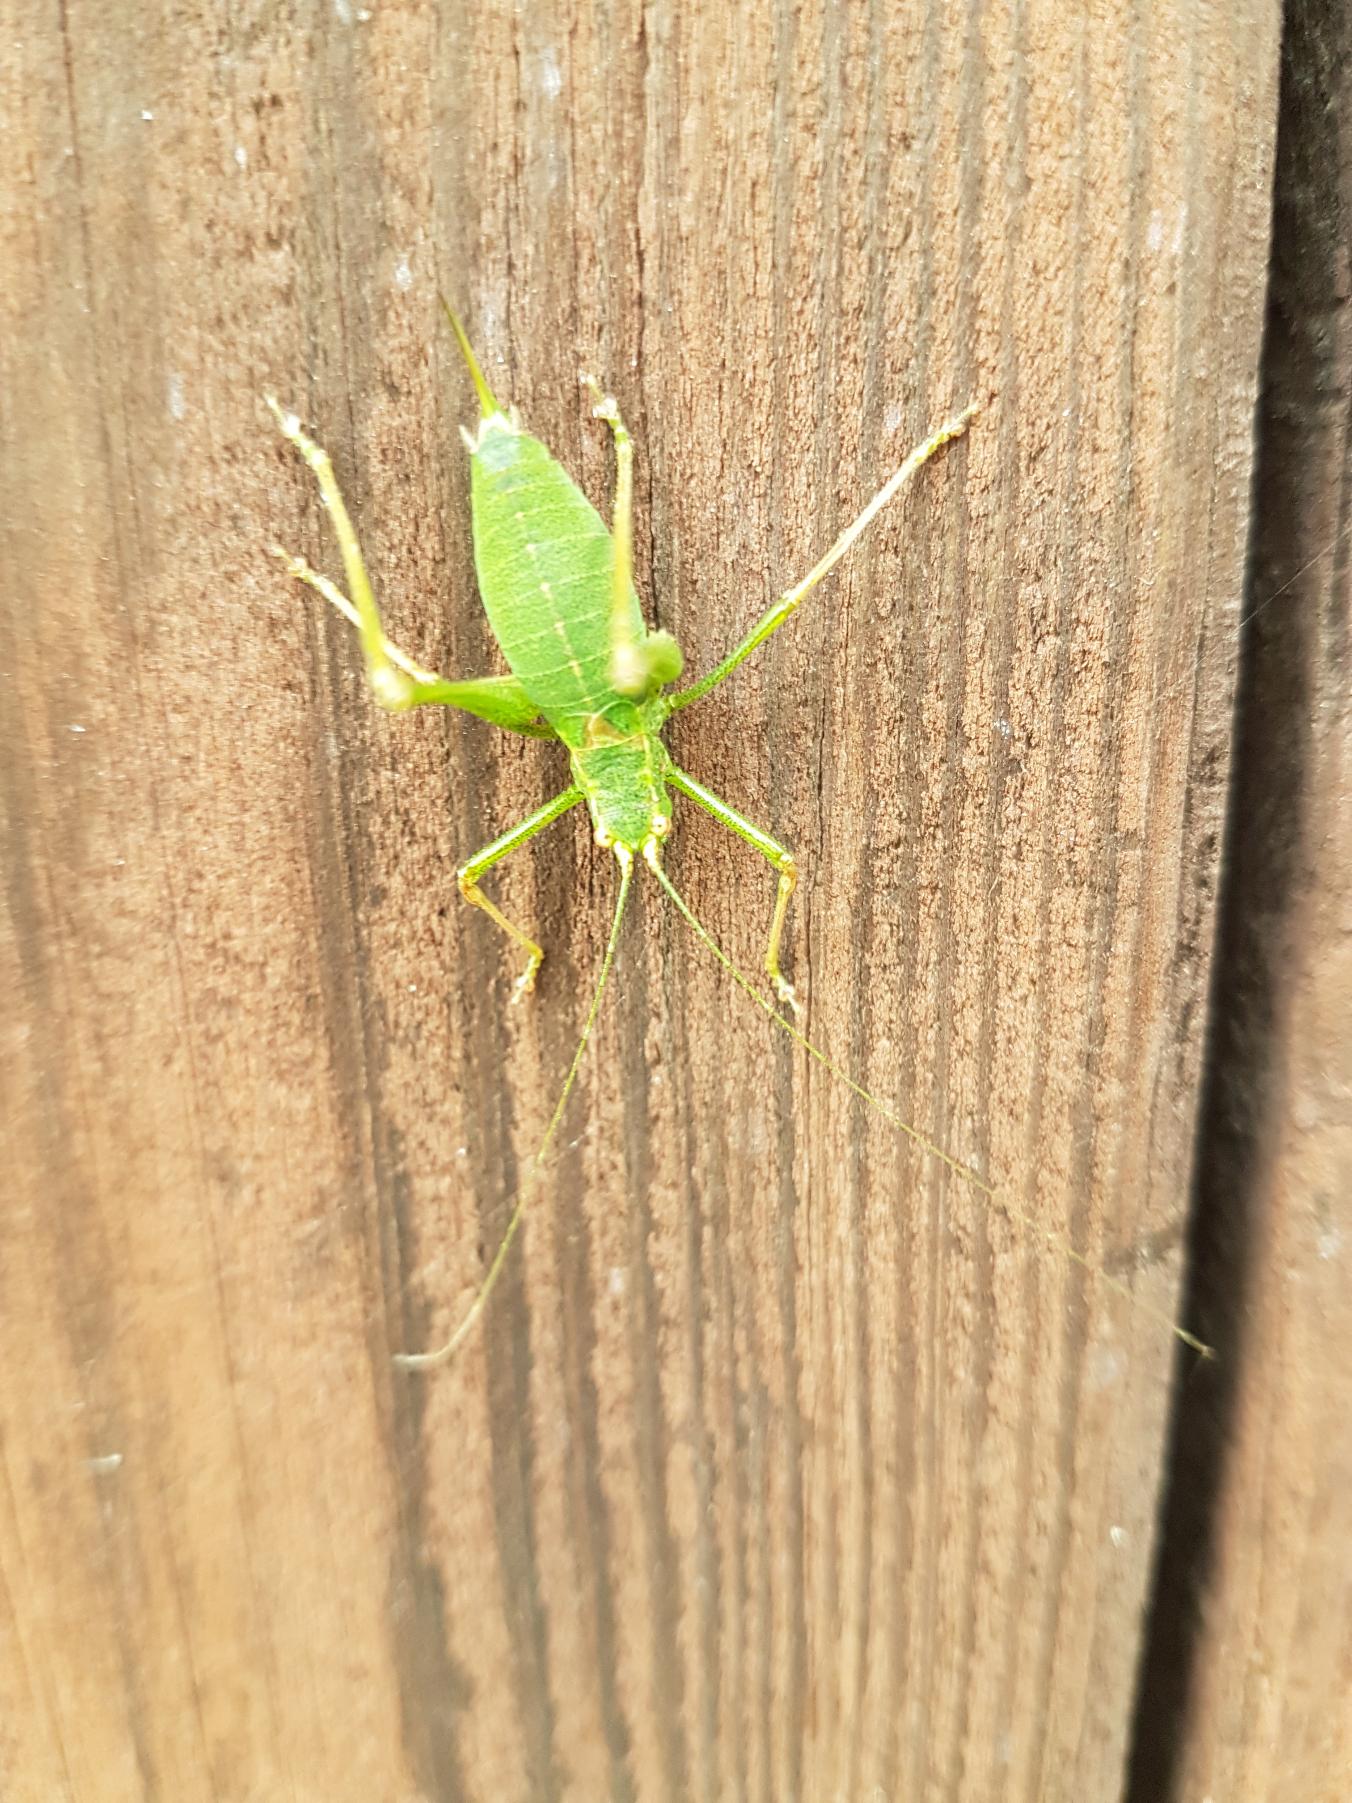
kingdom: Animalia
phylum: Arthropoda
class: Insecta
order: Orthoptera
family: Tettigoniidae
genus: Leptophyes
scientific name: Leptophyes punctatissima
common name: Krumknivgræshoppe
